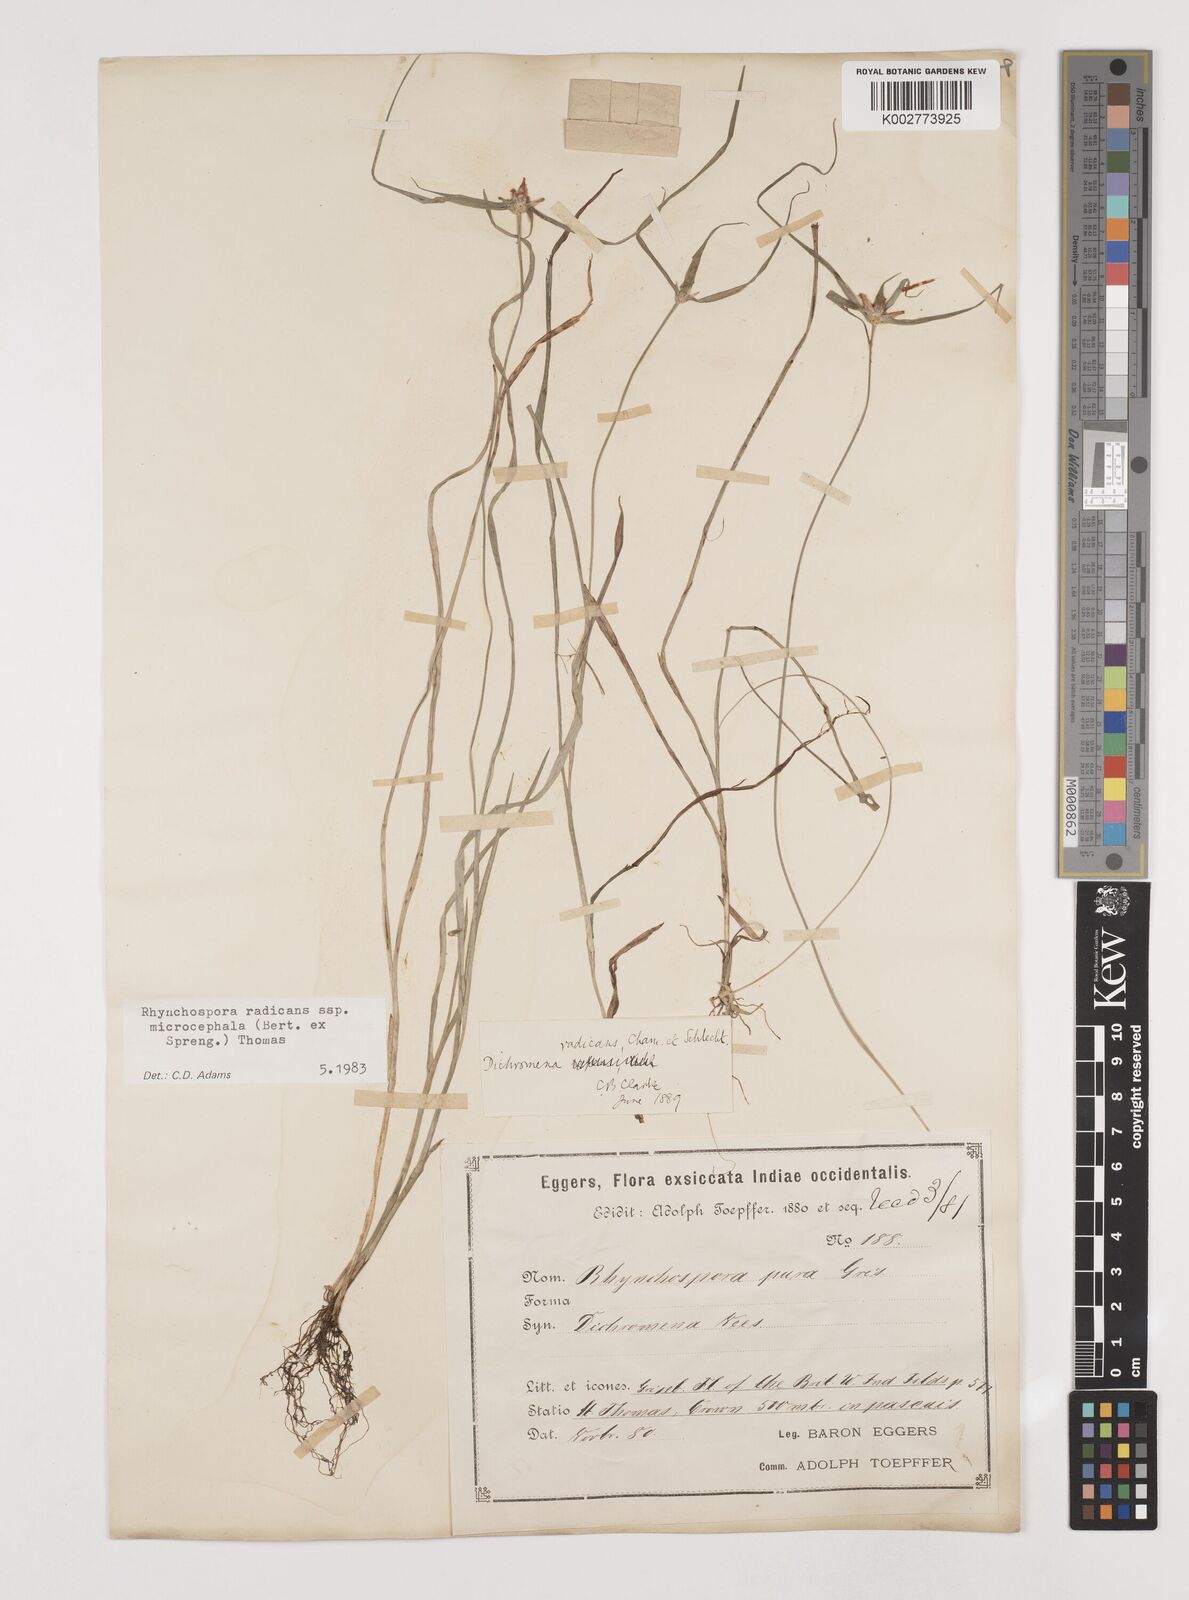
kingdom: Plantae
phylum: Tracheophyta
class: Liliopsida
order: Poales
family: Cyperaceae
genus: Rhynchospora
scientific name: Rhynchospora radicans
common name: Tropical whitetop
